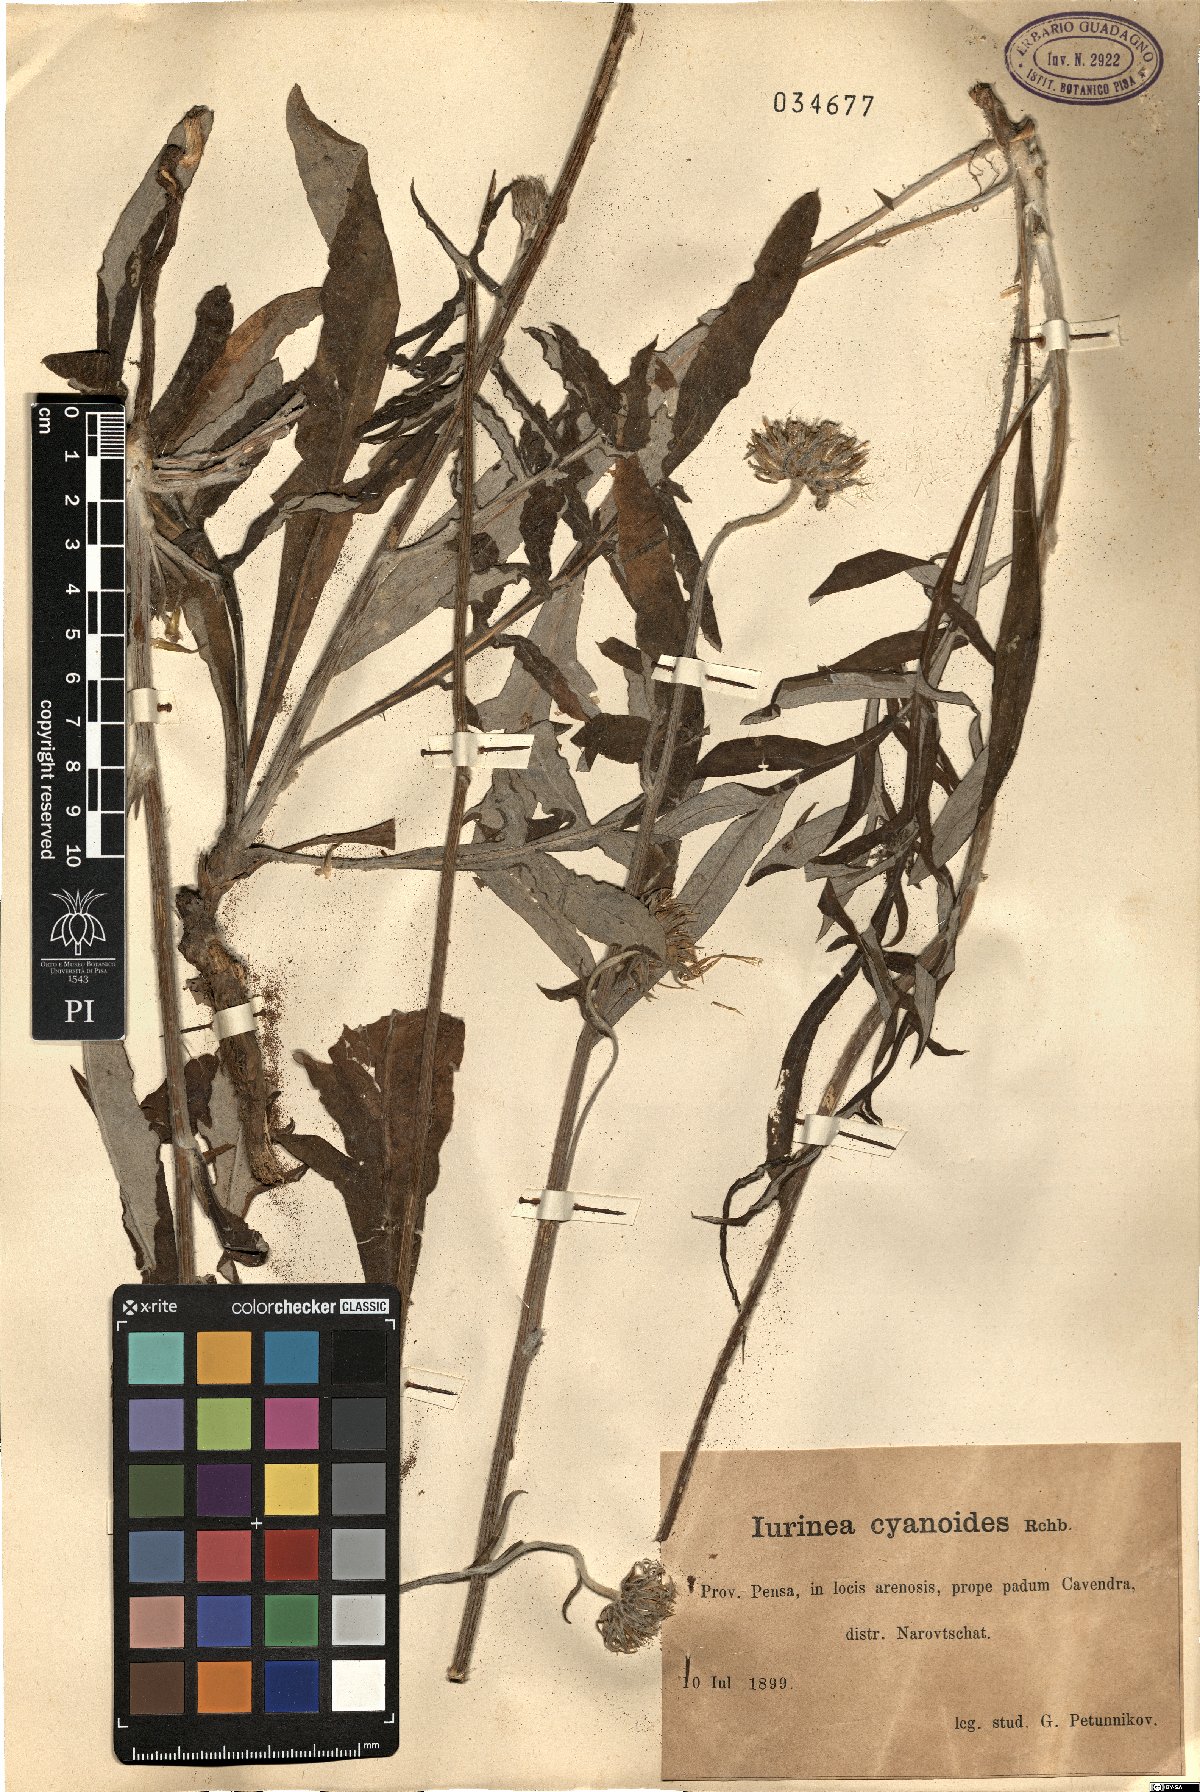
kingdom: Plantae
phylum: Tracheophyta
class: Magnoliopsida
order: Asterales
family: Asteraceae
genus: Jurinea
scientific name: Jurinea cyanoides
